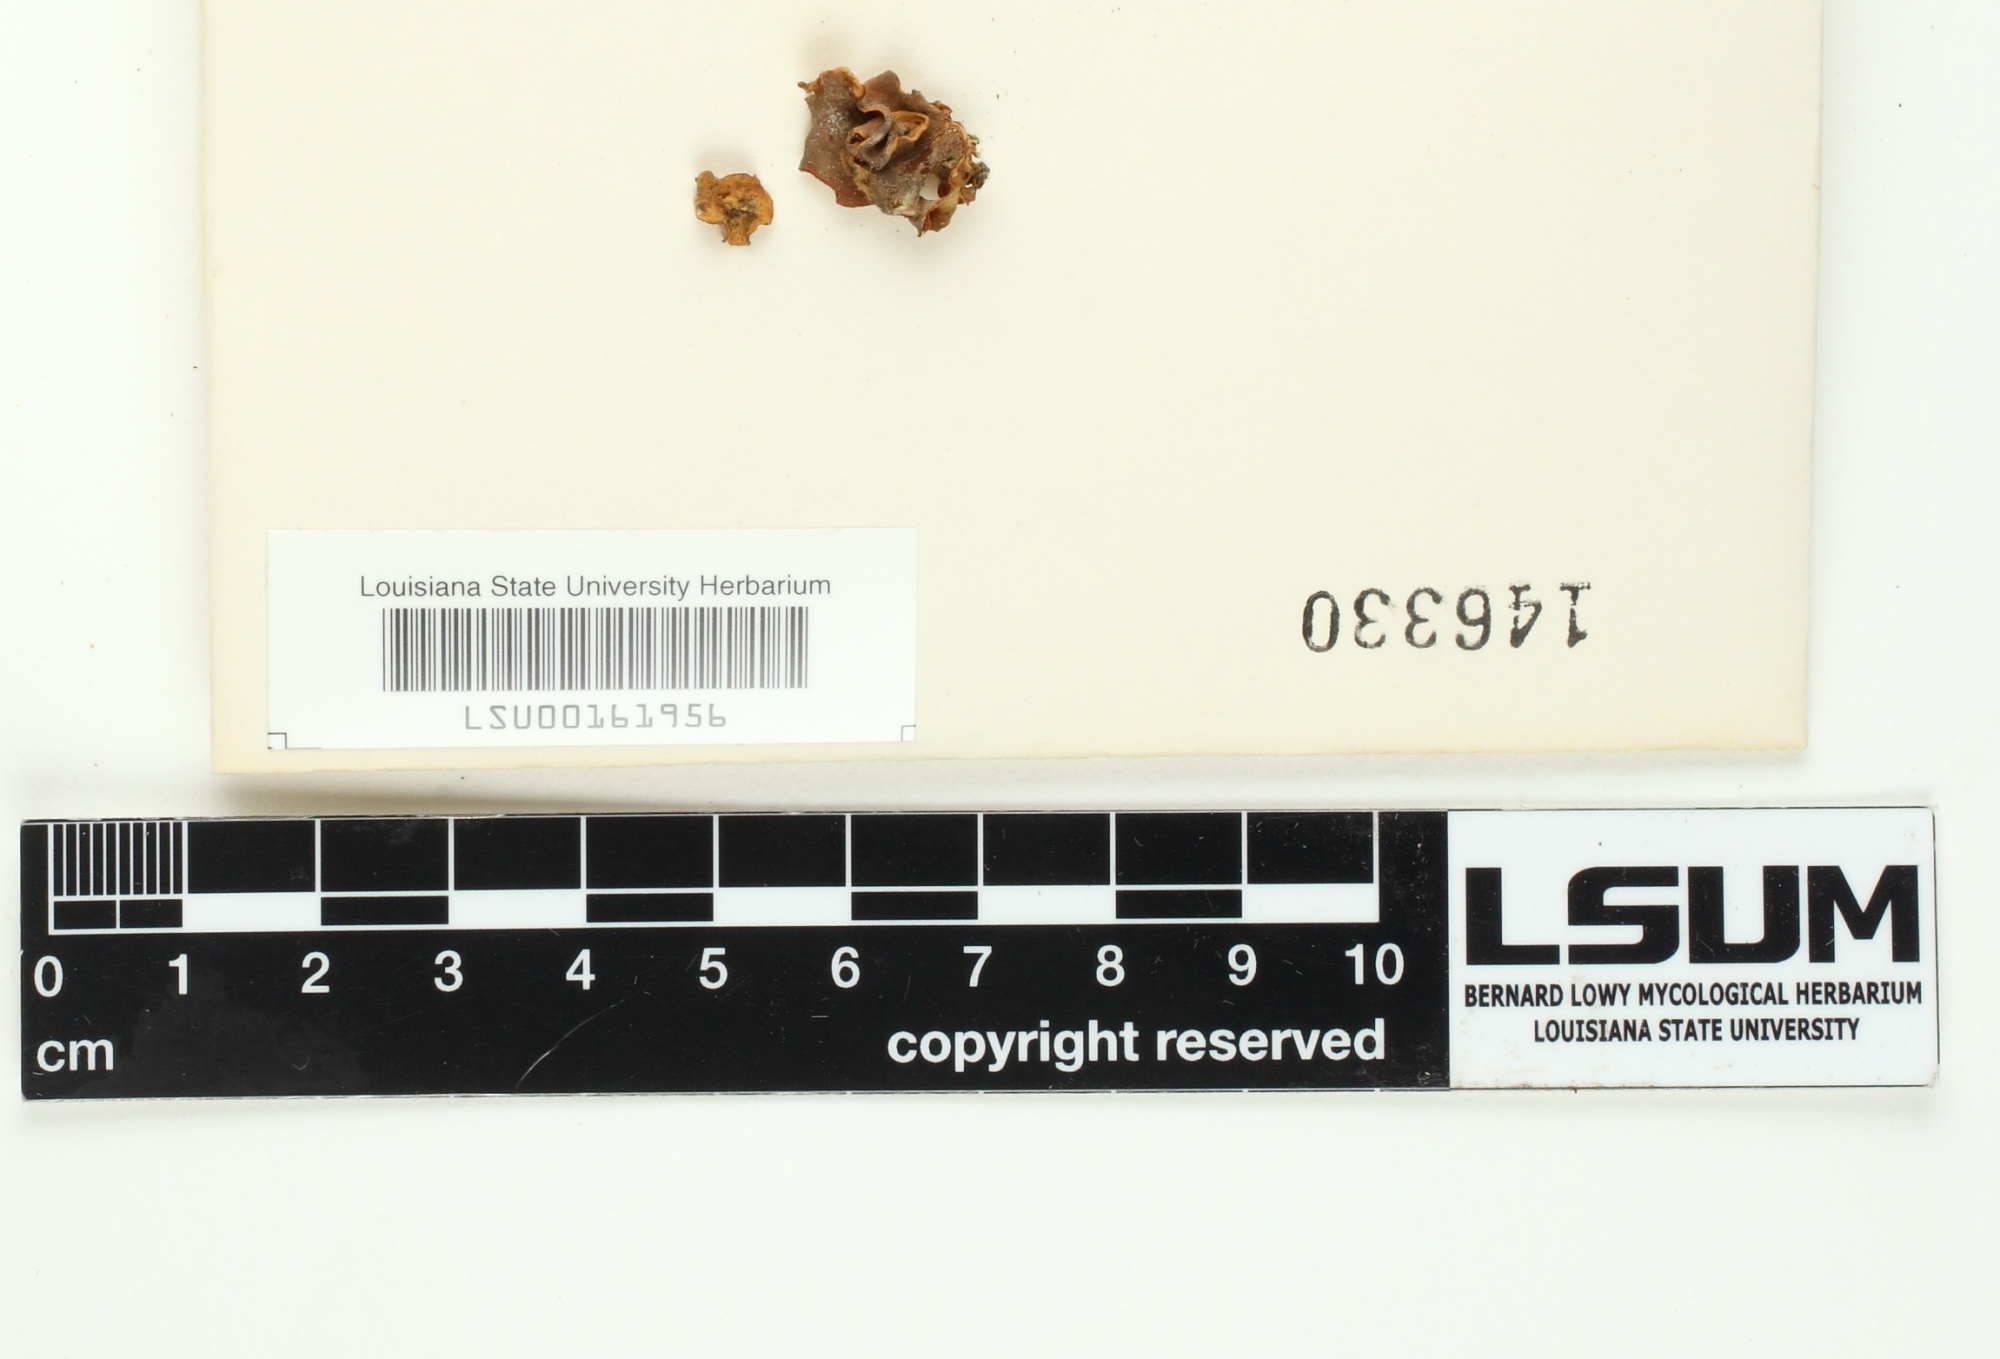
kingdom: Fungi
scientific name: Fungi
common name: Fungi
